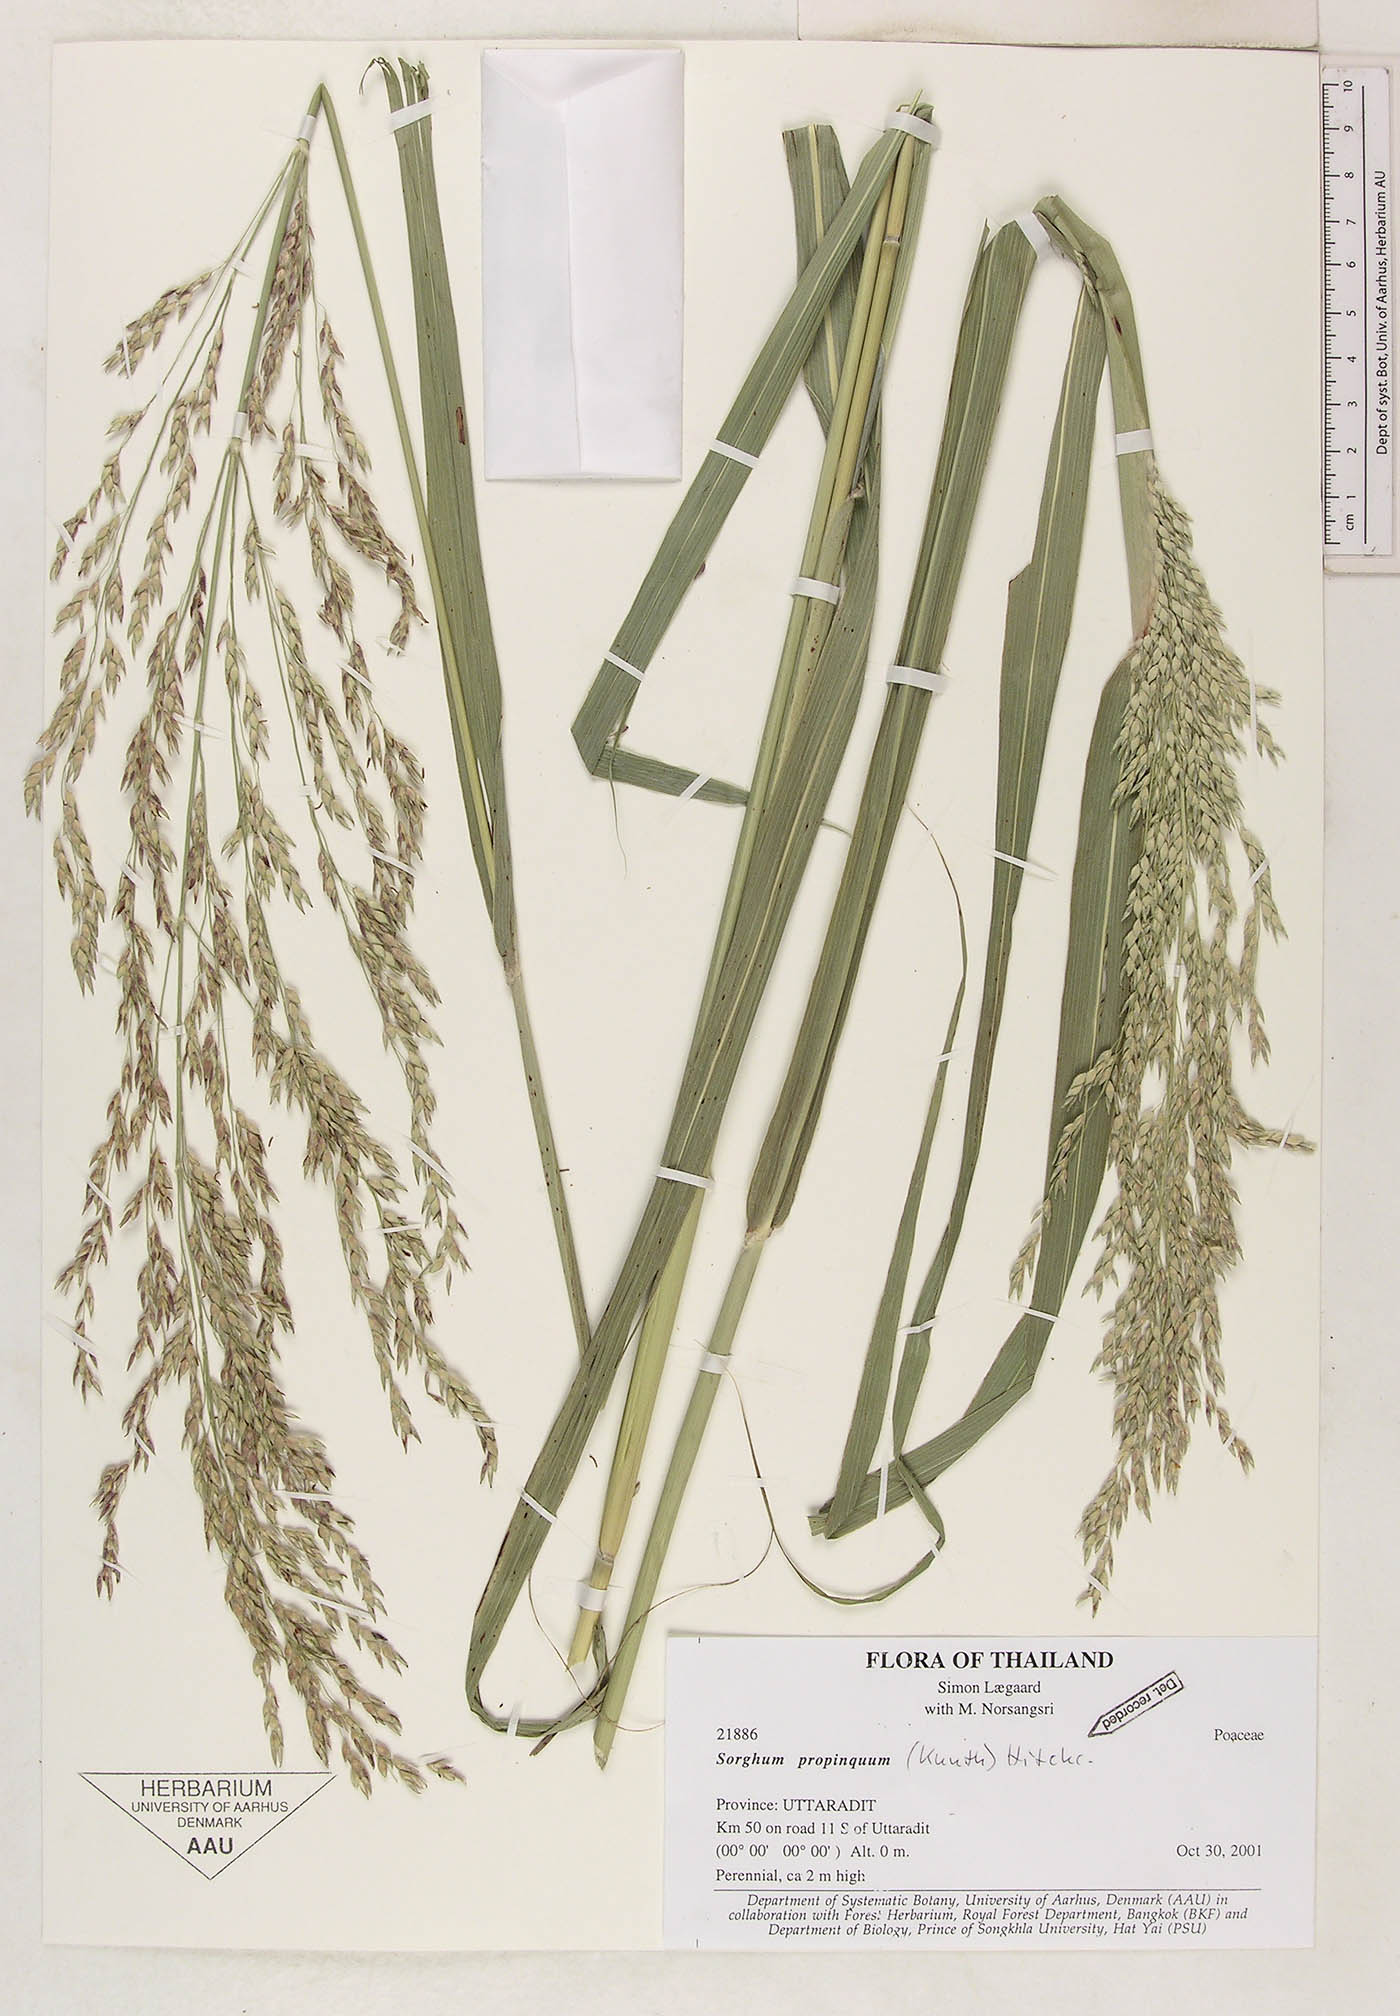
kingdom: Plantae
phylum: Tracheophyta
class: Liliopsida
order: Poales
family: Poaceae
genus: Sorghum
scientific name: Sorghum propinquum
